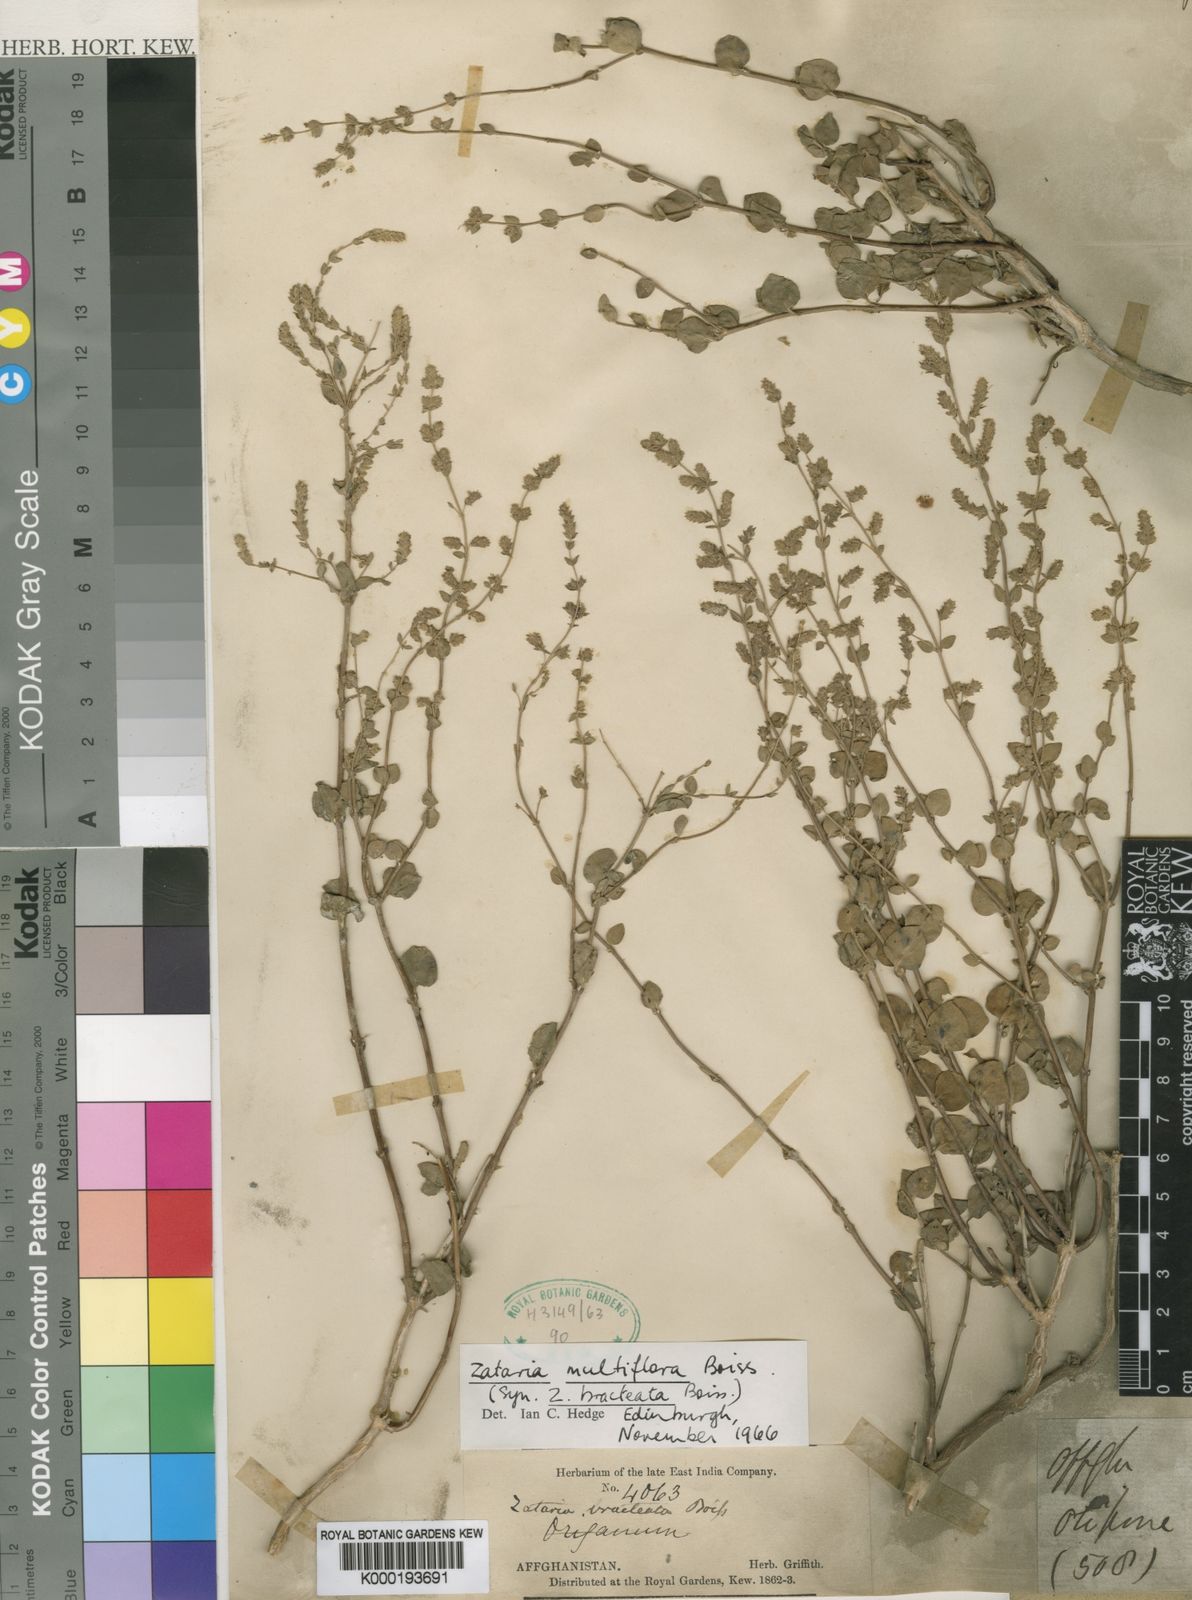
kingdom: Plantae
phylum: Tracheophyta
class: Magnoliopsida
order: Lamiales
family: Lamiaceae
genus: Zataria
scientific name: Zataria multiflora
